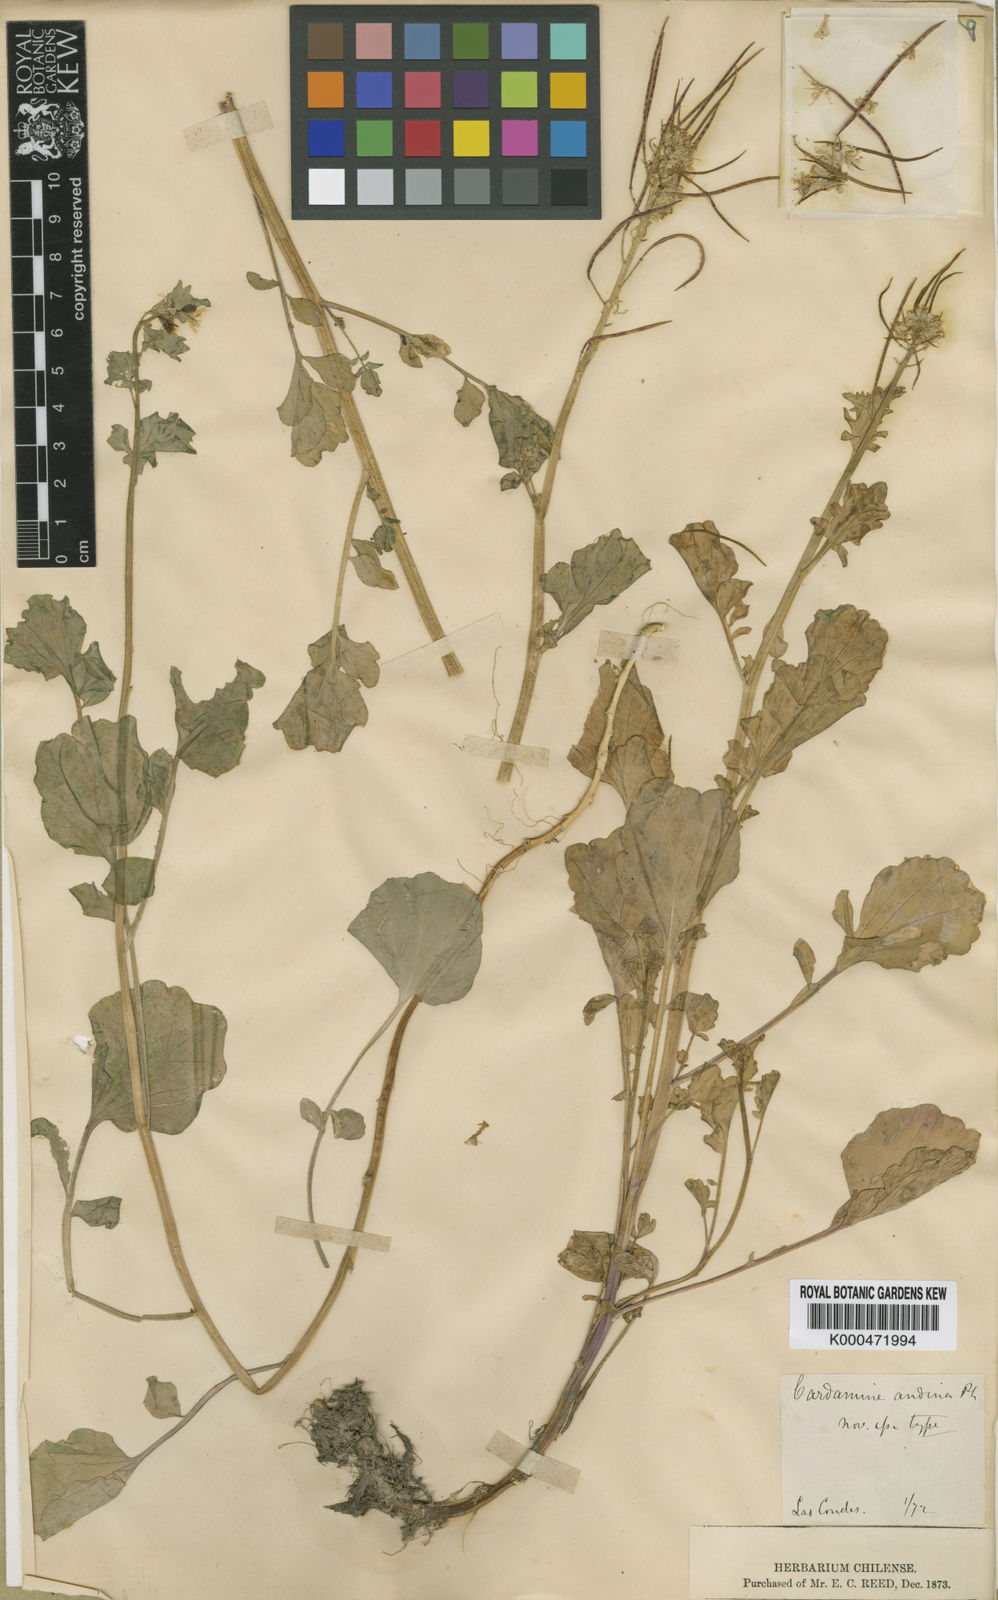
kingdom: Plantae
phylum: Tracheophyta
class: Magnoliopsida
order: Brassicales
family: Brassicaceae
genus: Cardamine
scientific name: Cardamine volkmannii
